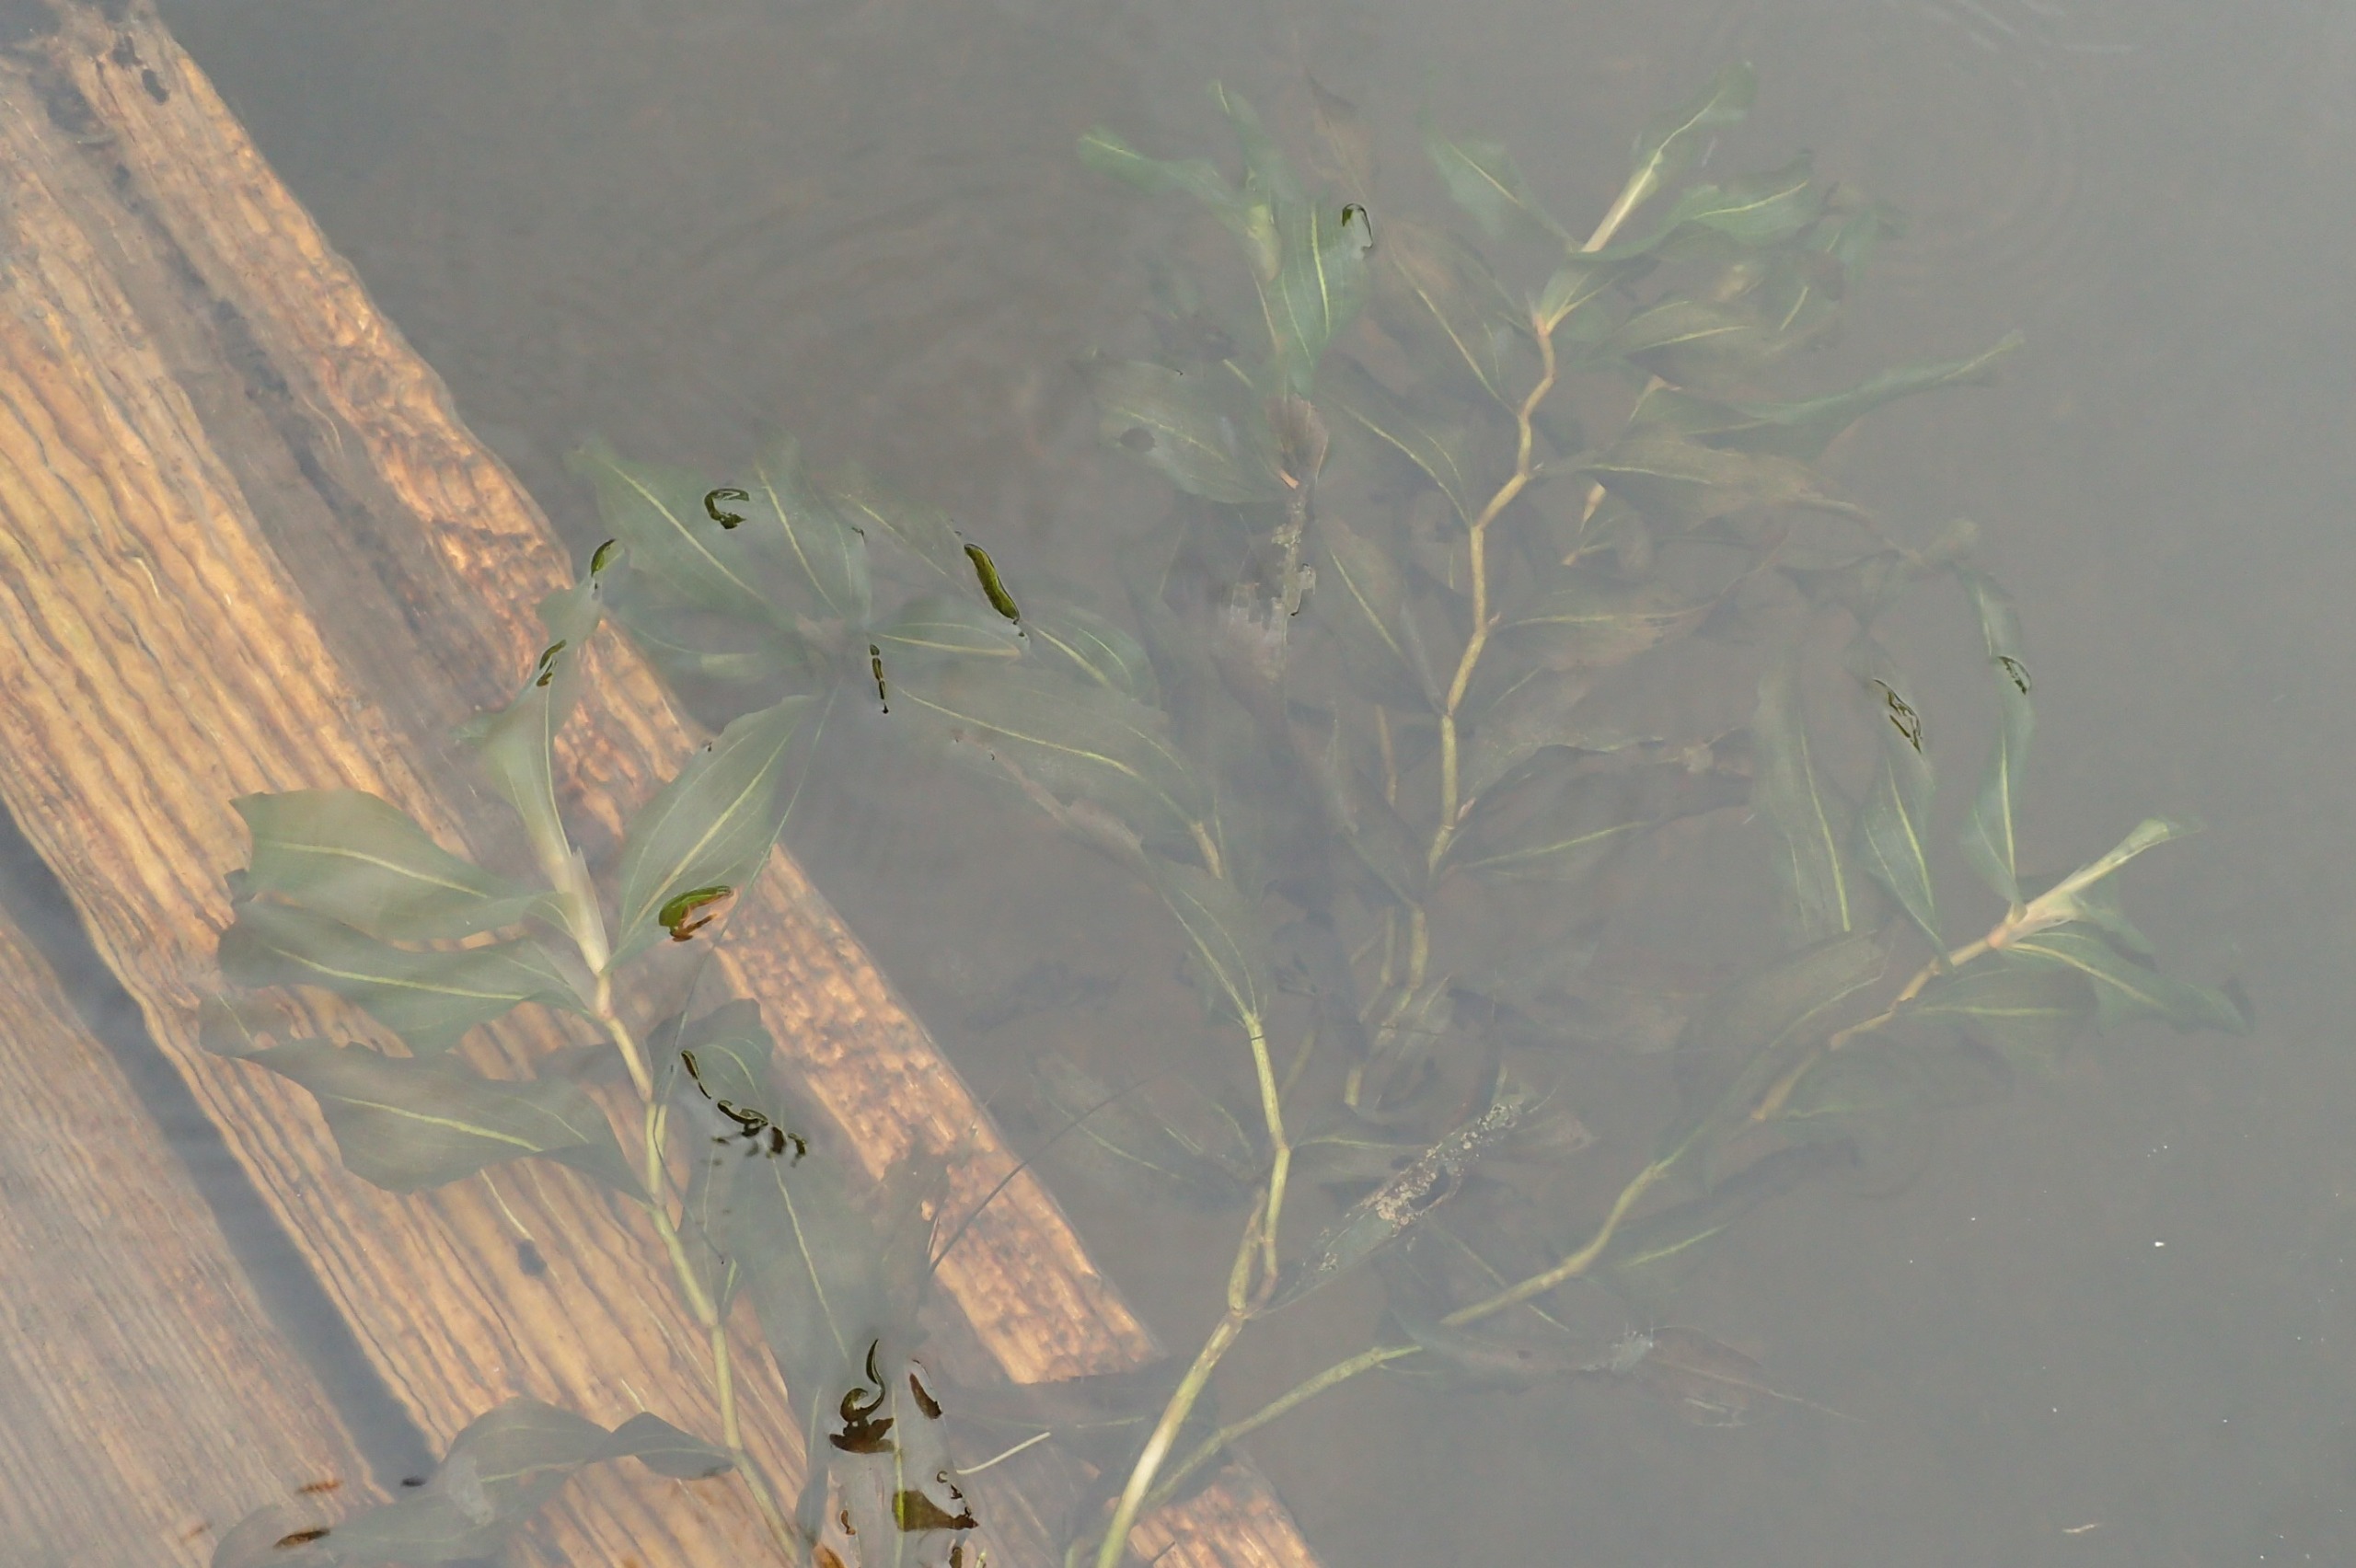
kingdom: Plantae
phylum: Tracheophyta
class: Liliopsida
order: Alismatales
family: Potamogetonaceae
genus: Potamogeton
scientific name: Potamogeton praelongus
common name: Langbladet vandaks
